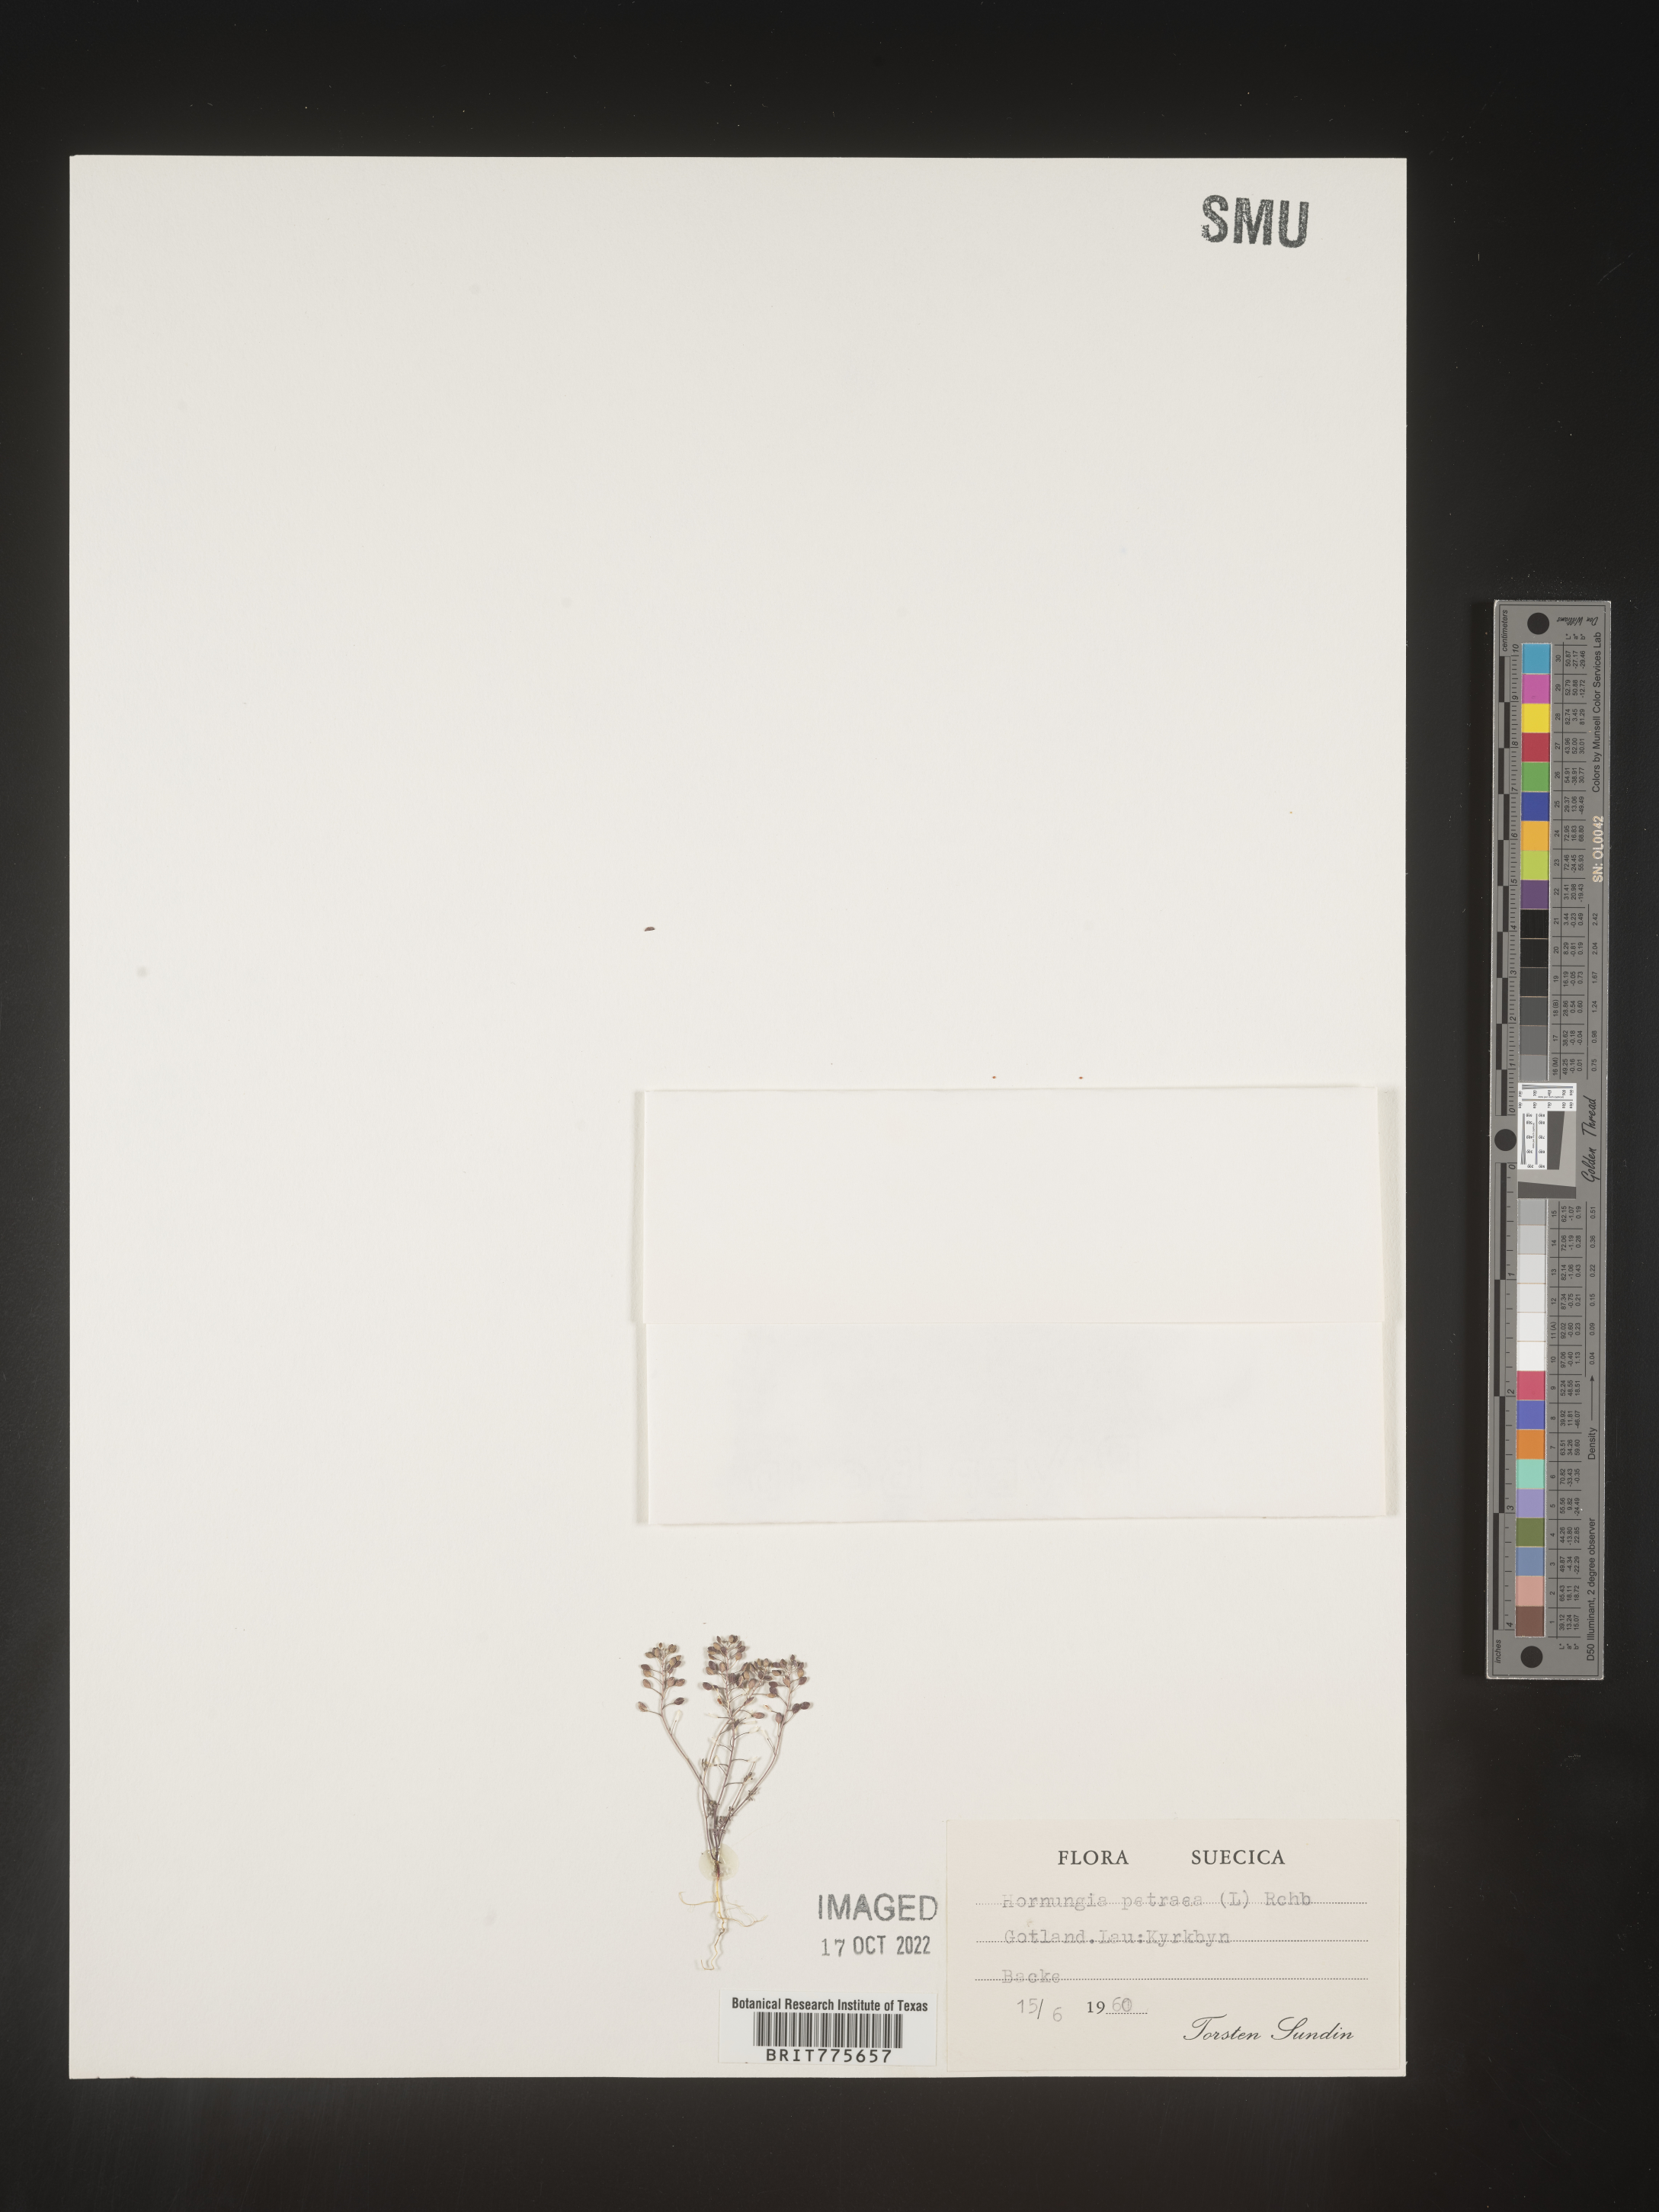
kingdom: Plantae
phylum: Tracheophyta
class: Magnoliopsida
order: Brassicales
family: Brassicaceae
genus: Hornungia
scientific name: Hornungia
